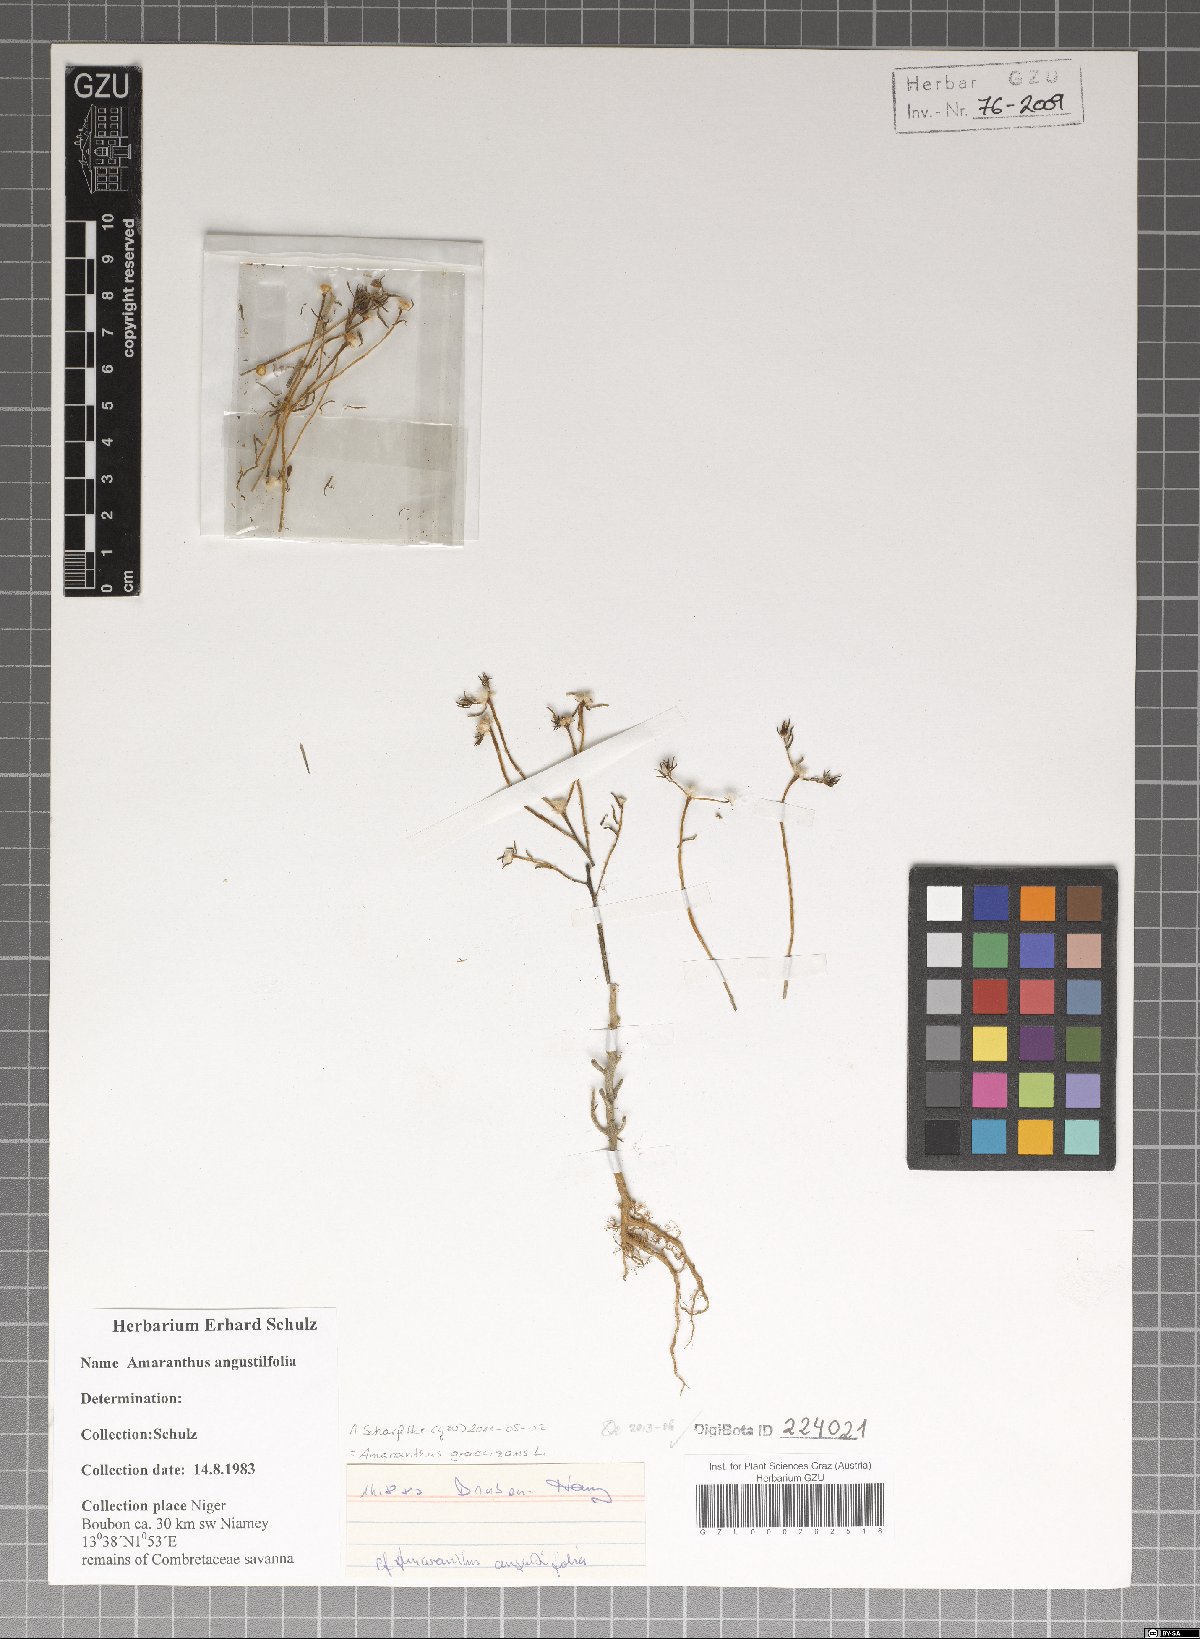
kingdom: Plantae
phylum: Tracheophyta
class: Magnoliopsida
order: Caryophyllales
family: Amaranthaceae
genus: Amaranthus
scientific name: Amaranthus graecizans
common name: Mediterranean amaranth
